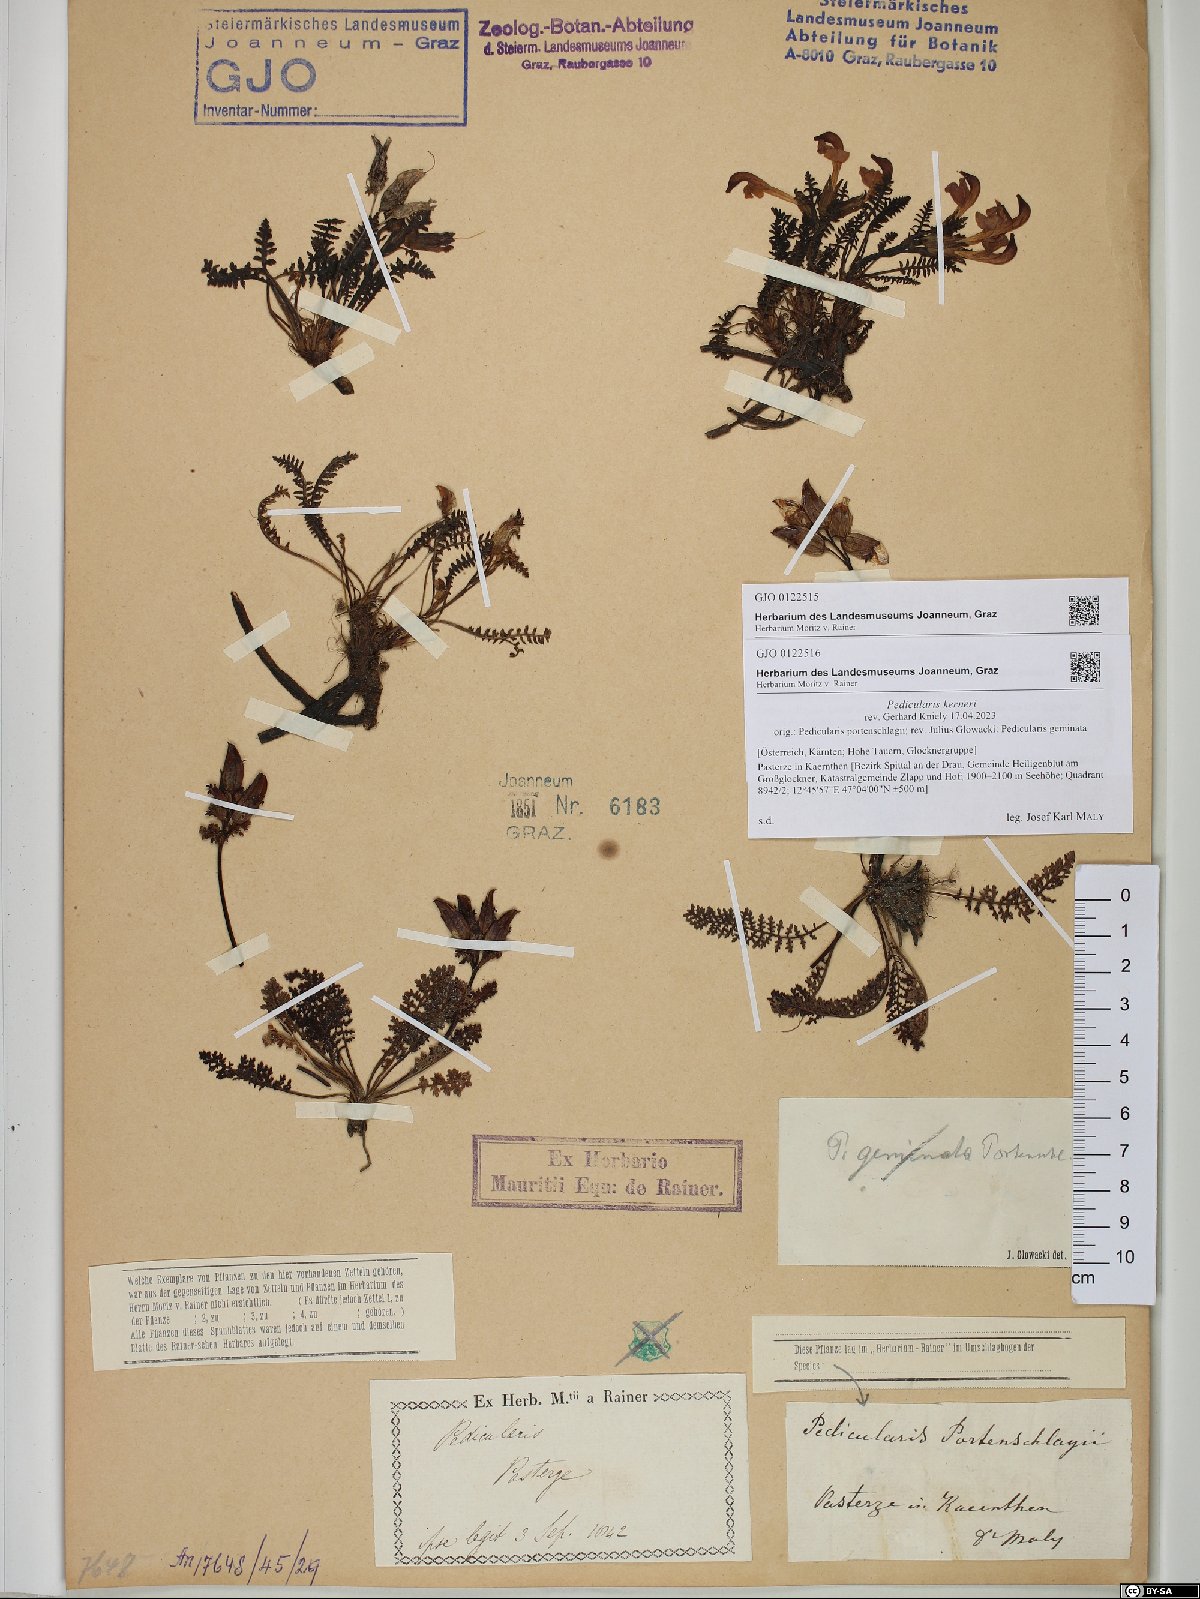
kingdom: Plantae
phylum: Tracheophyta
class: Magnoliopsida
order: Lamiales
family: Orobanchaceae
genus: Pedicularis
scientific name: Pedicularis kerneri
